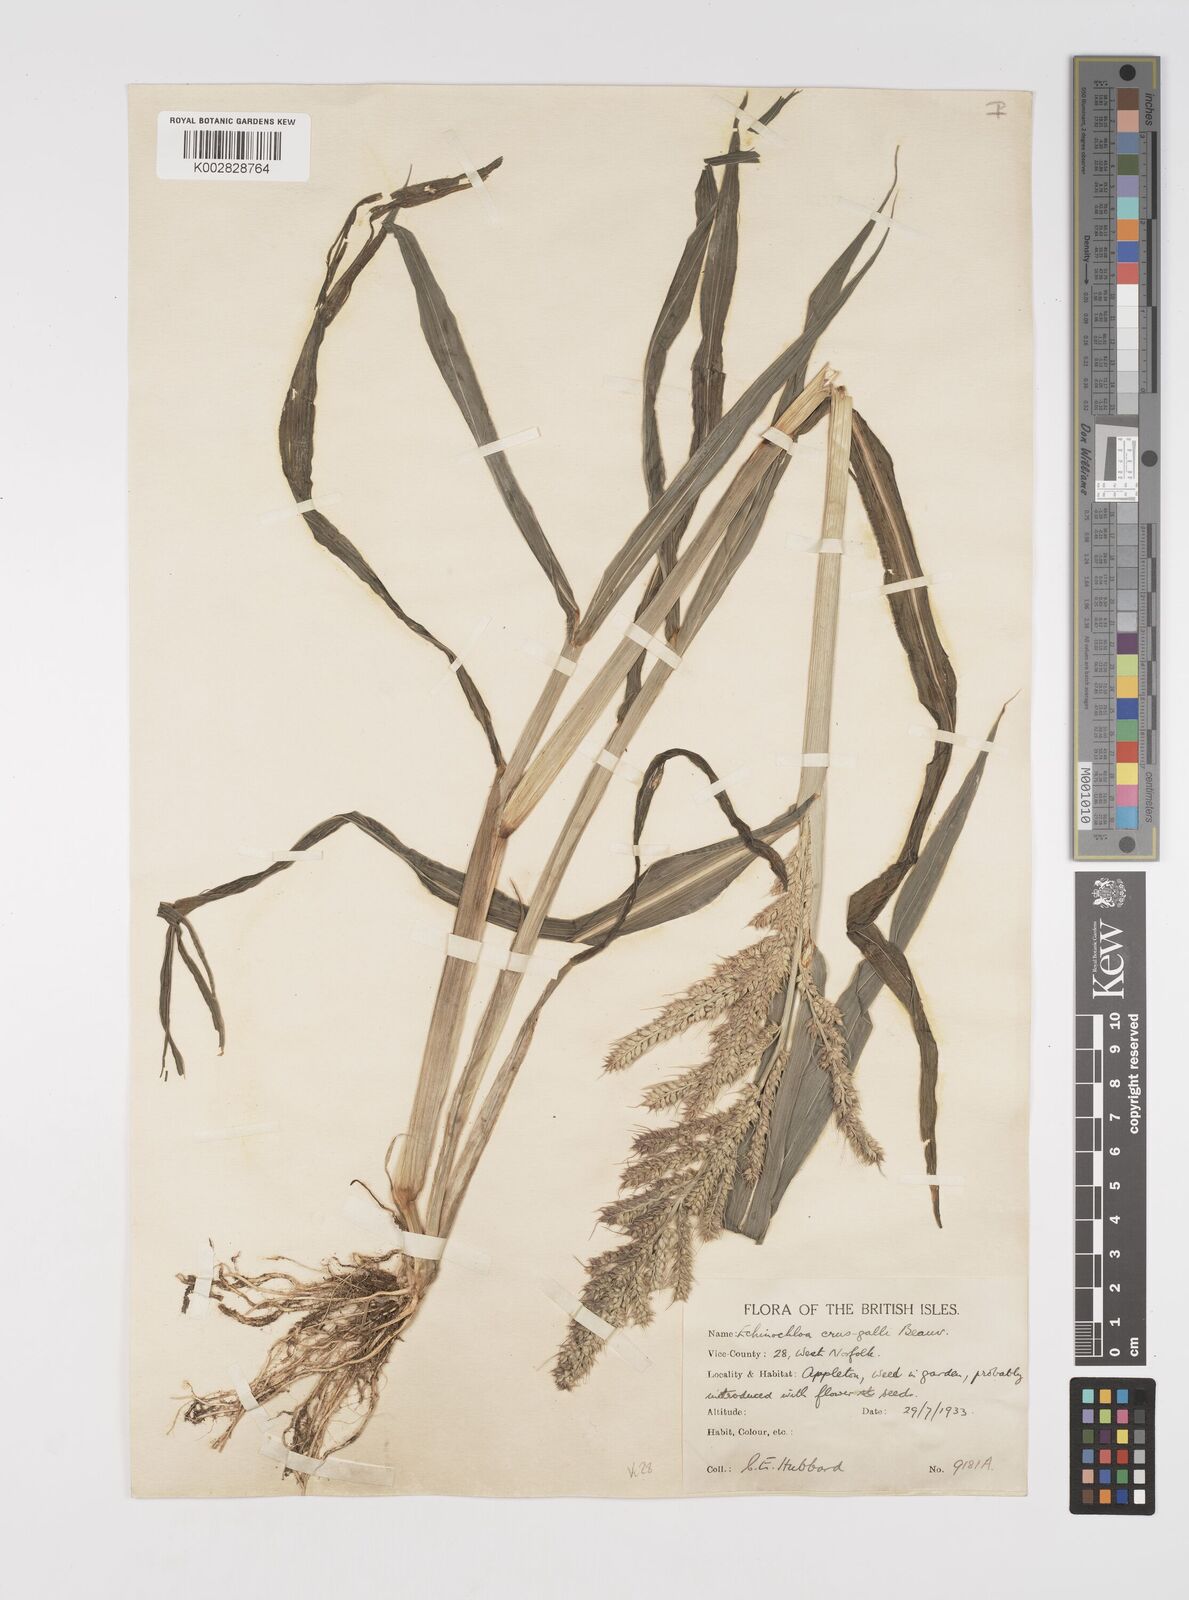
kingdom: Plantae
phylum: Tracheophyta
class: Liliopsida
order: Poales
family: Poaceae
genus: Echinochloa
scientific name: Echinochloa crus-galli
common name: Cockspur
